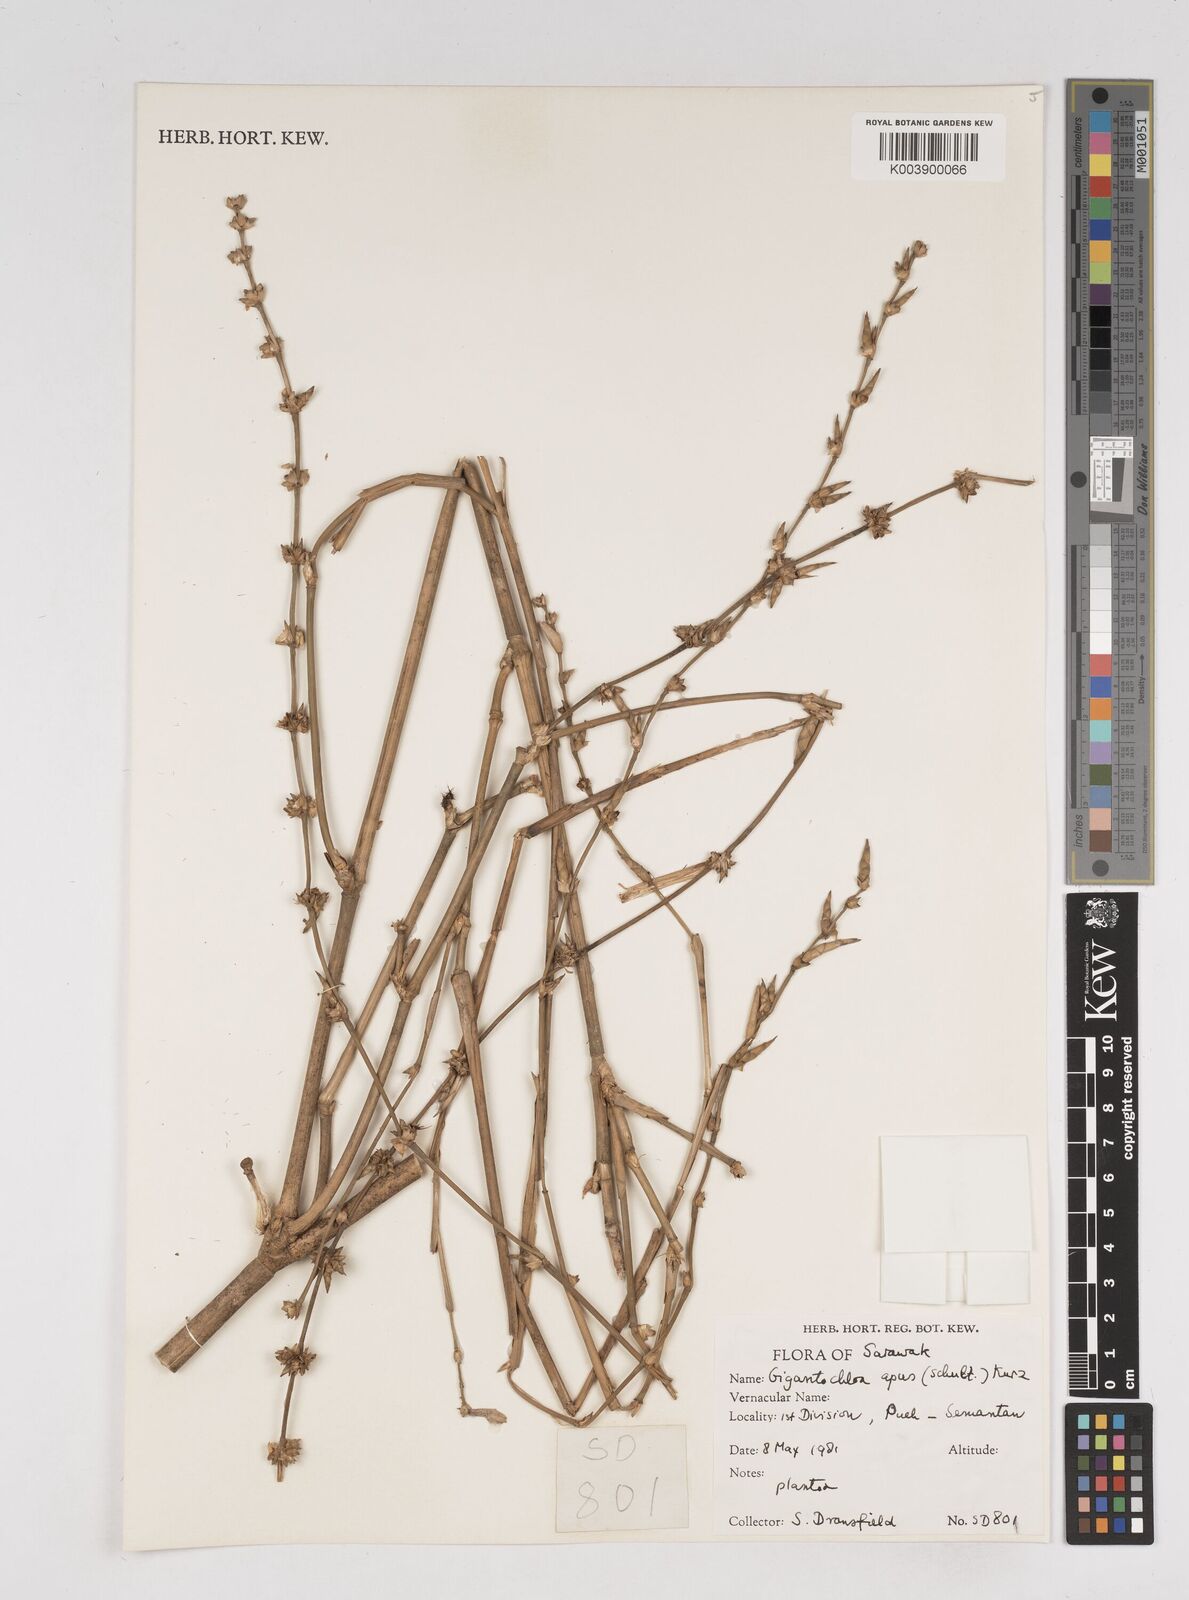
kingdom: Plantae
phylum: Tracheophyta
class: Liliopsida
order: Poales
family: Poaceae
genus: Gigantochloa
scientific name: Gigantochloa apus
